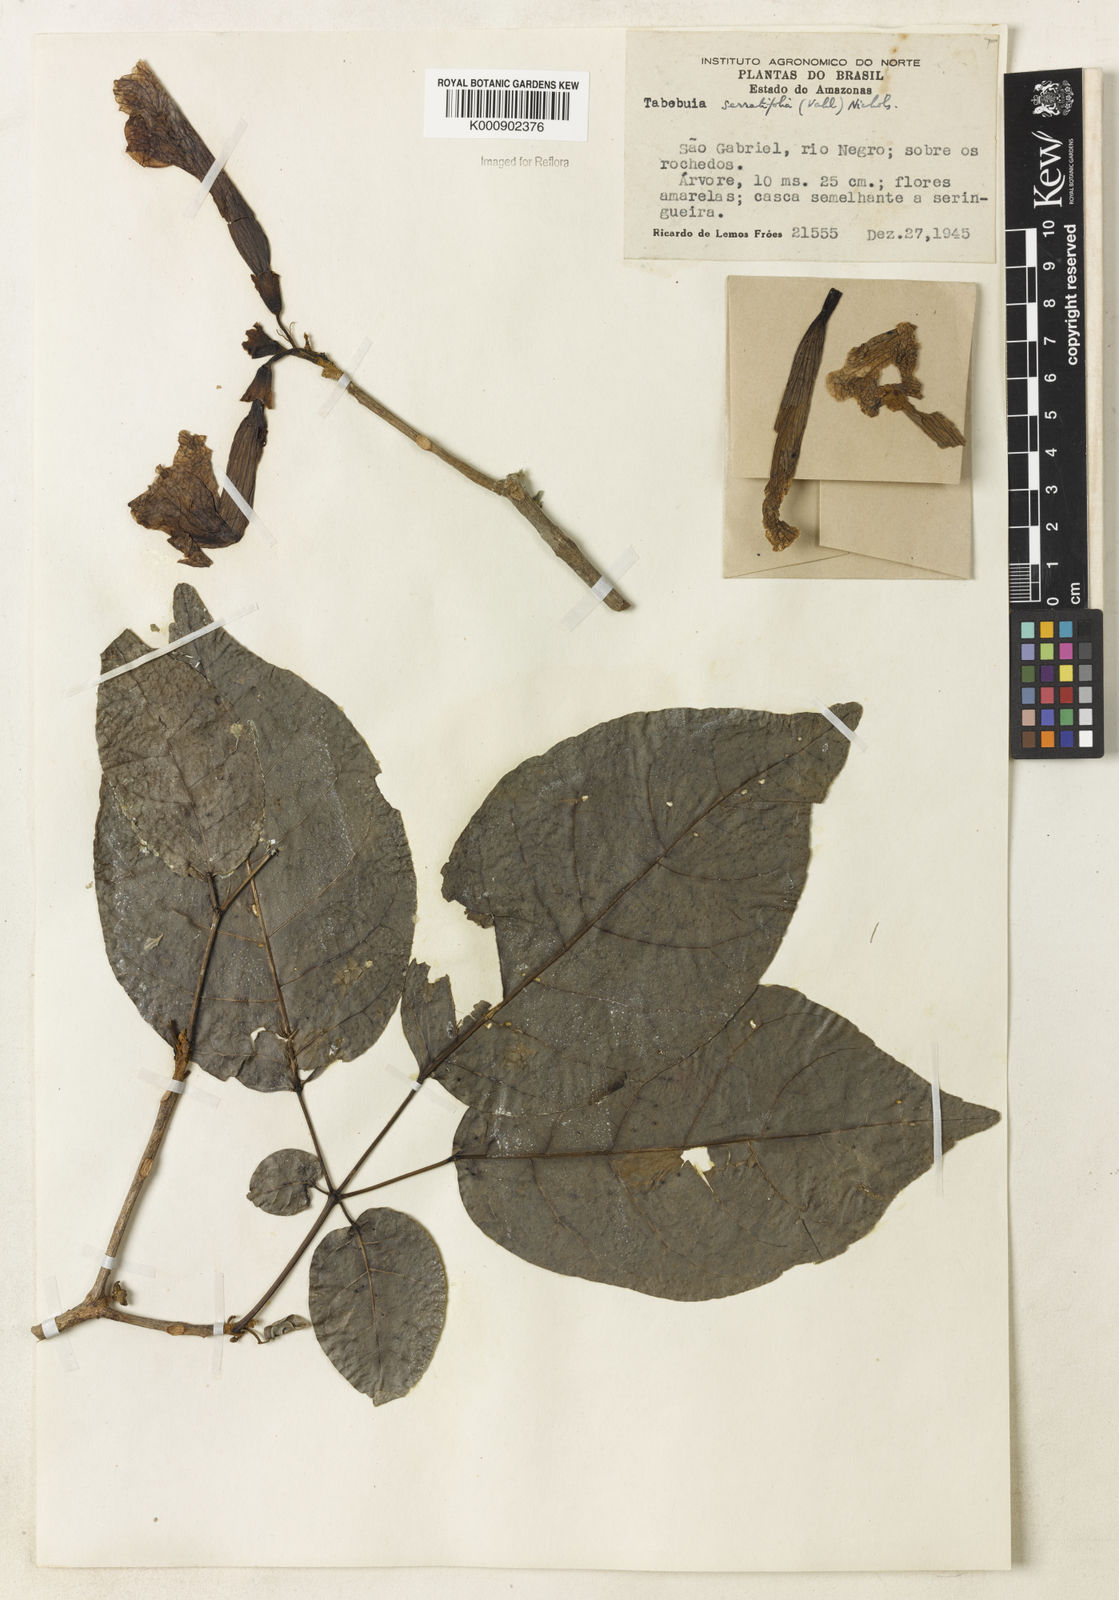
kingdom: Plantae
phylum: Tracheophyta
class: Magnoliopsida
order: Lamiales
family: Bignoniaceae
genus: Handroanthus
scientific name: Handroanthus serratifolius
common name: Yellow ipe
